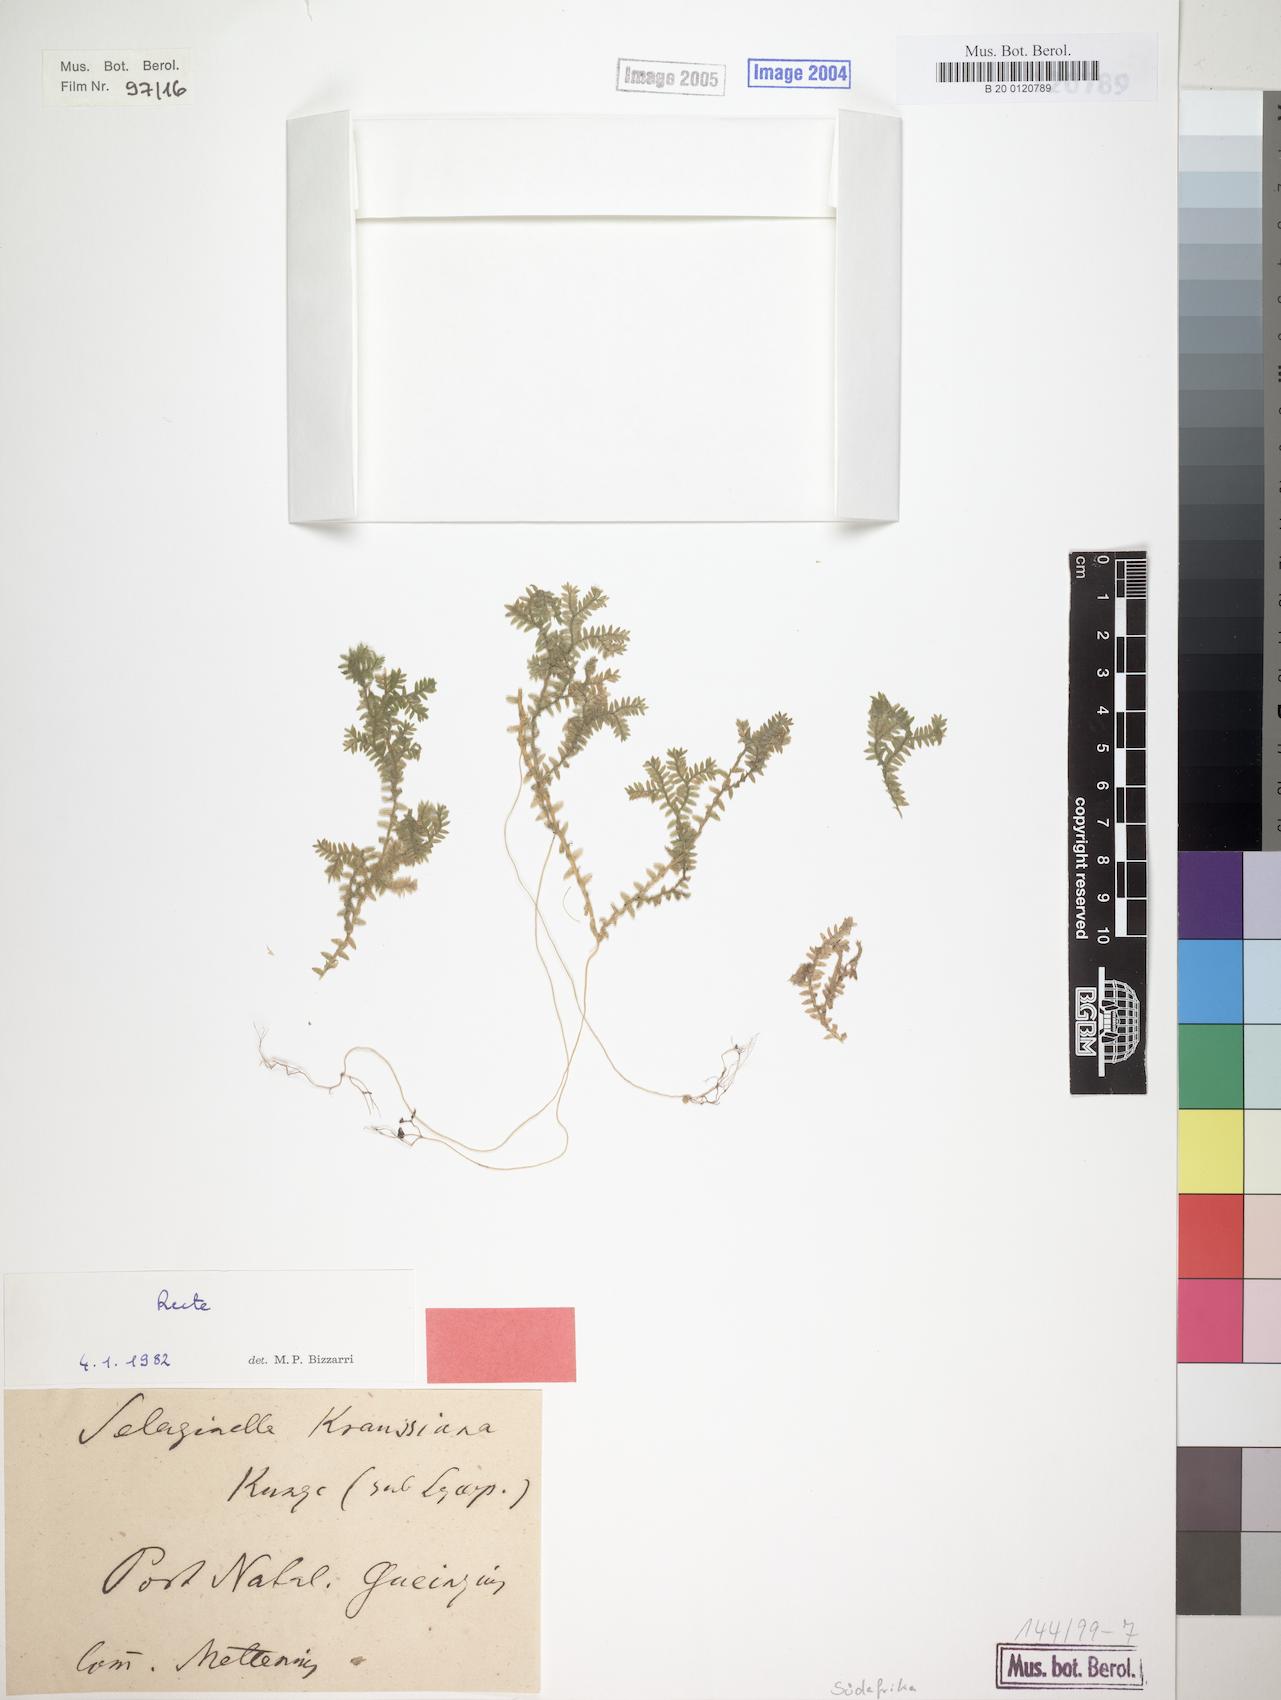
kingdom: Plantae
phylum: Tracheophyta
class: Lycopodiopsida
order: Selaginellales
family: Selaginellaceae
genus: Selaginella
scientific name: Selaginella kraussiana
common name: Krauss' spikemoss
